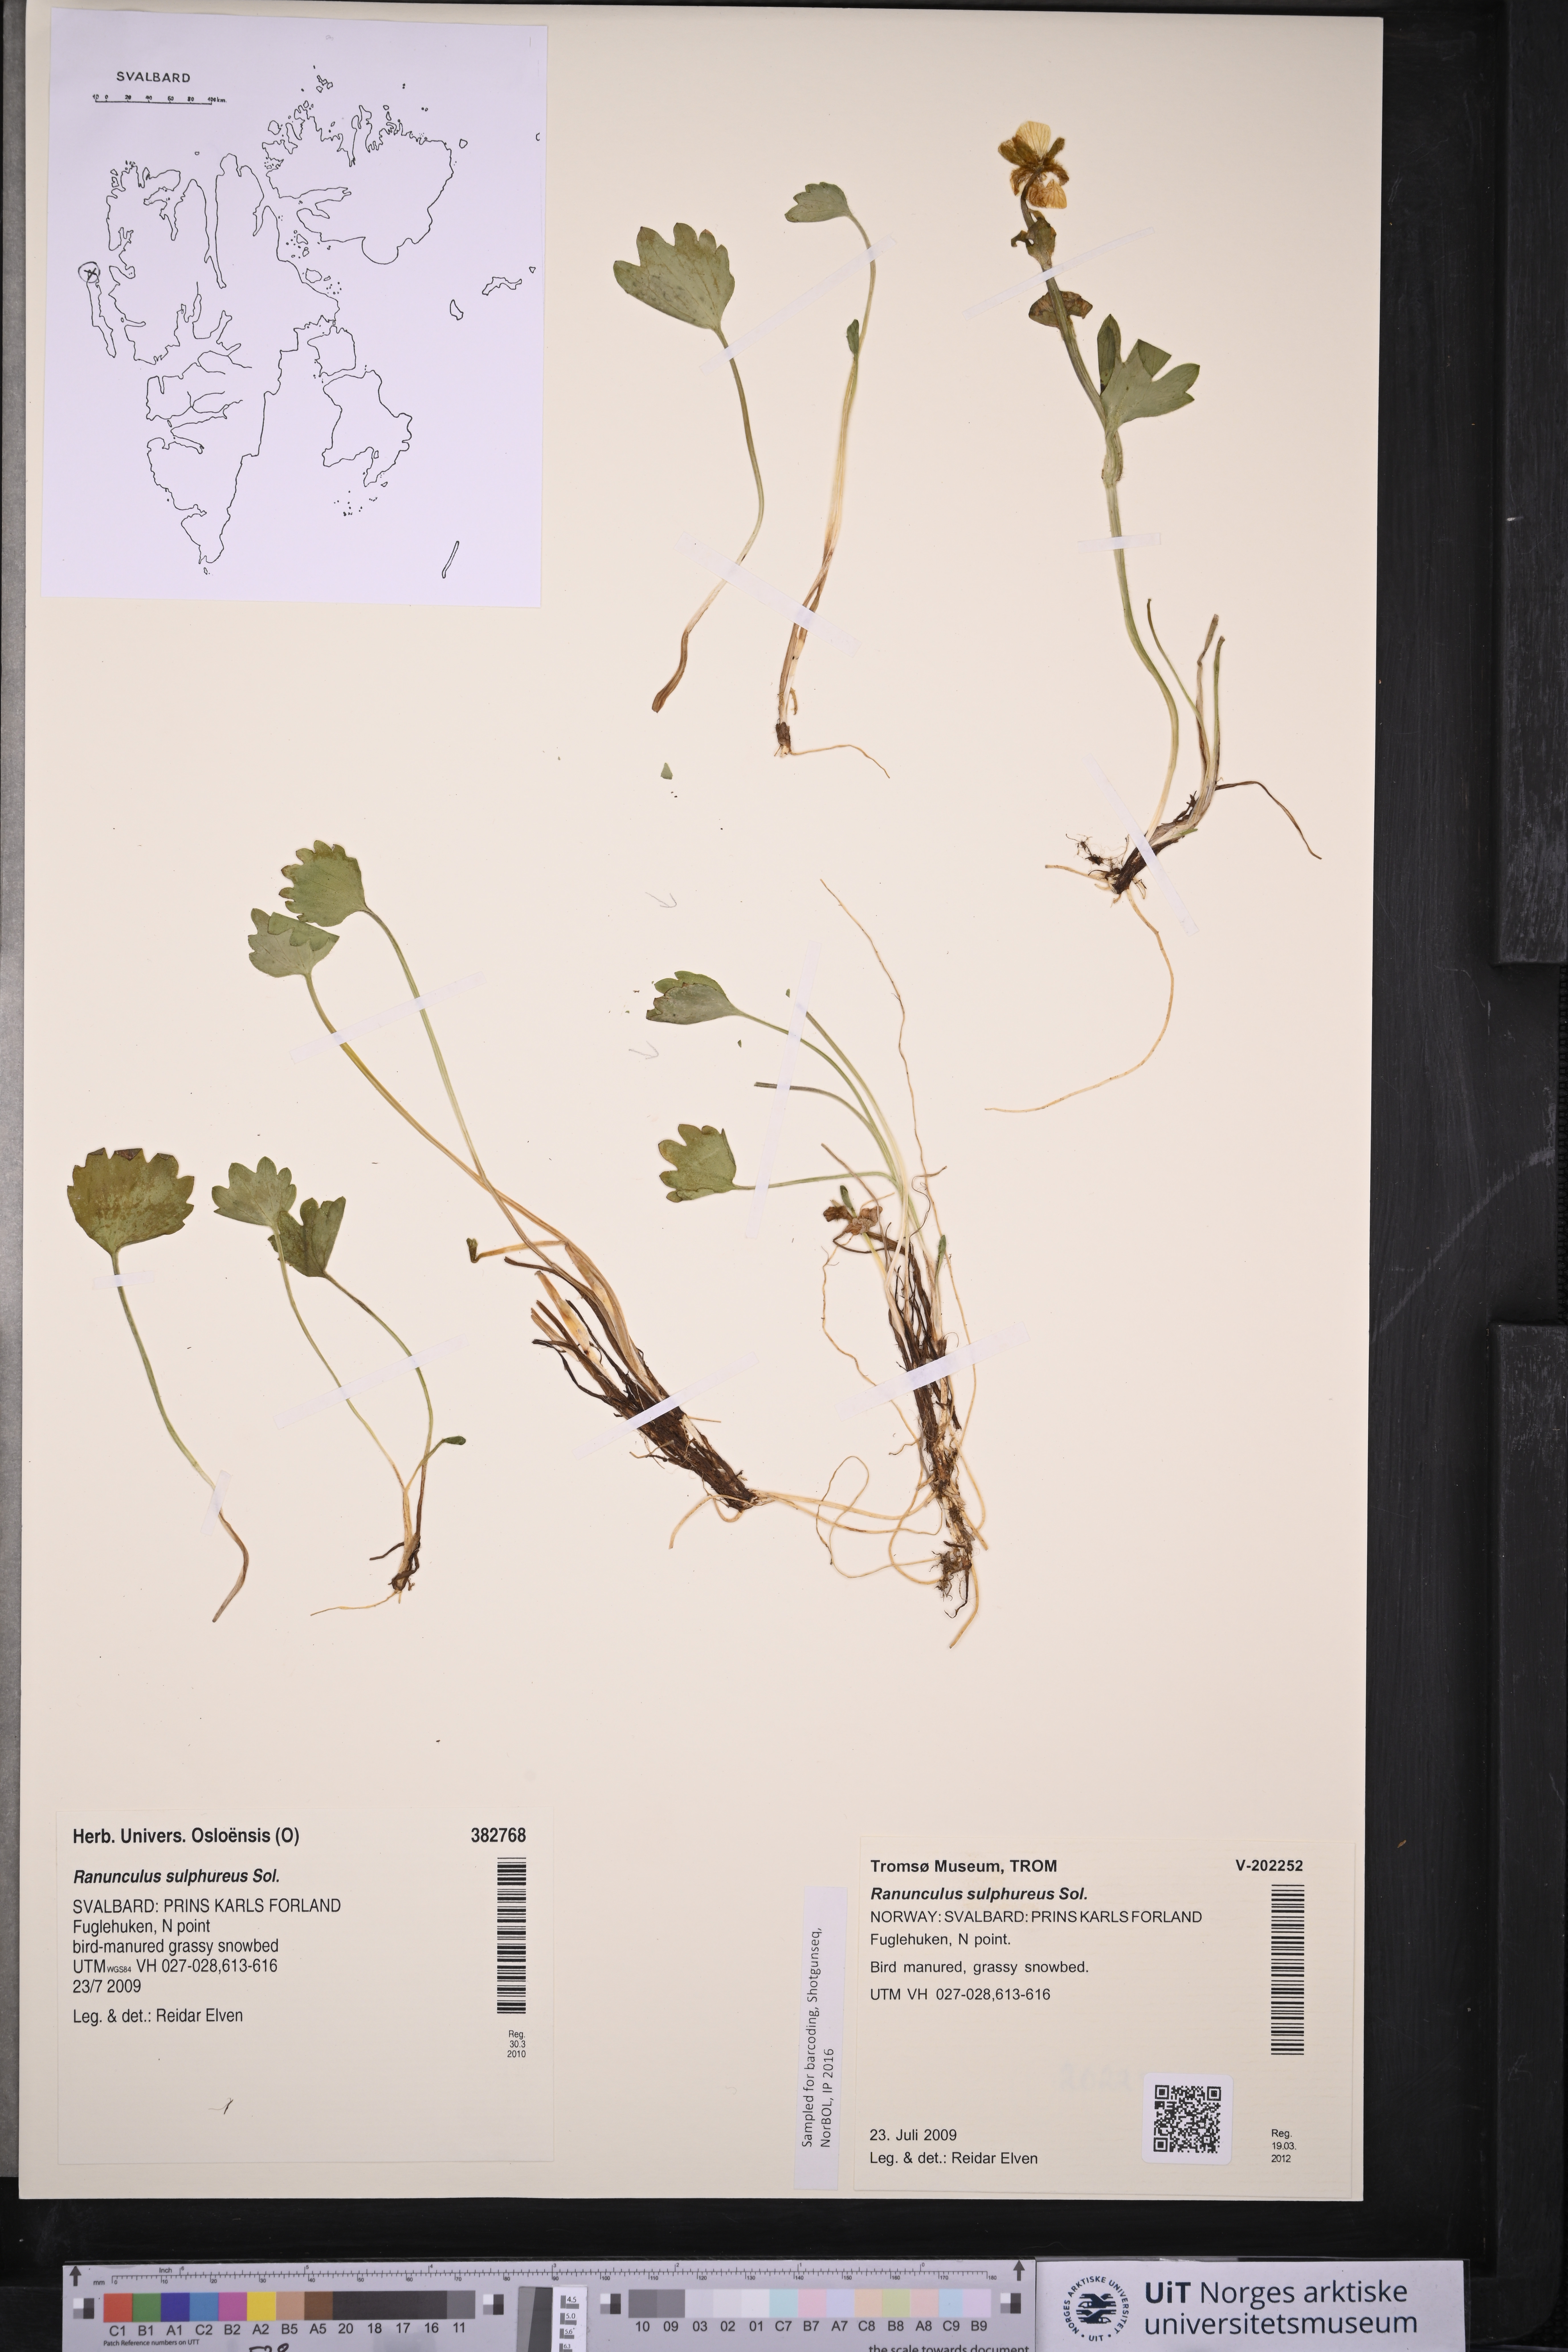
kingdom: Plantae
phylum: Tracheophyta
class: Magnoliopsida
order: Ranunculales
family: Ranunculaceae
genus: Ranunculus
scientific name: Ranunculus sulphureus
